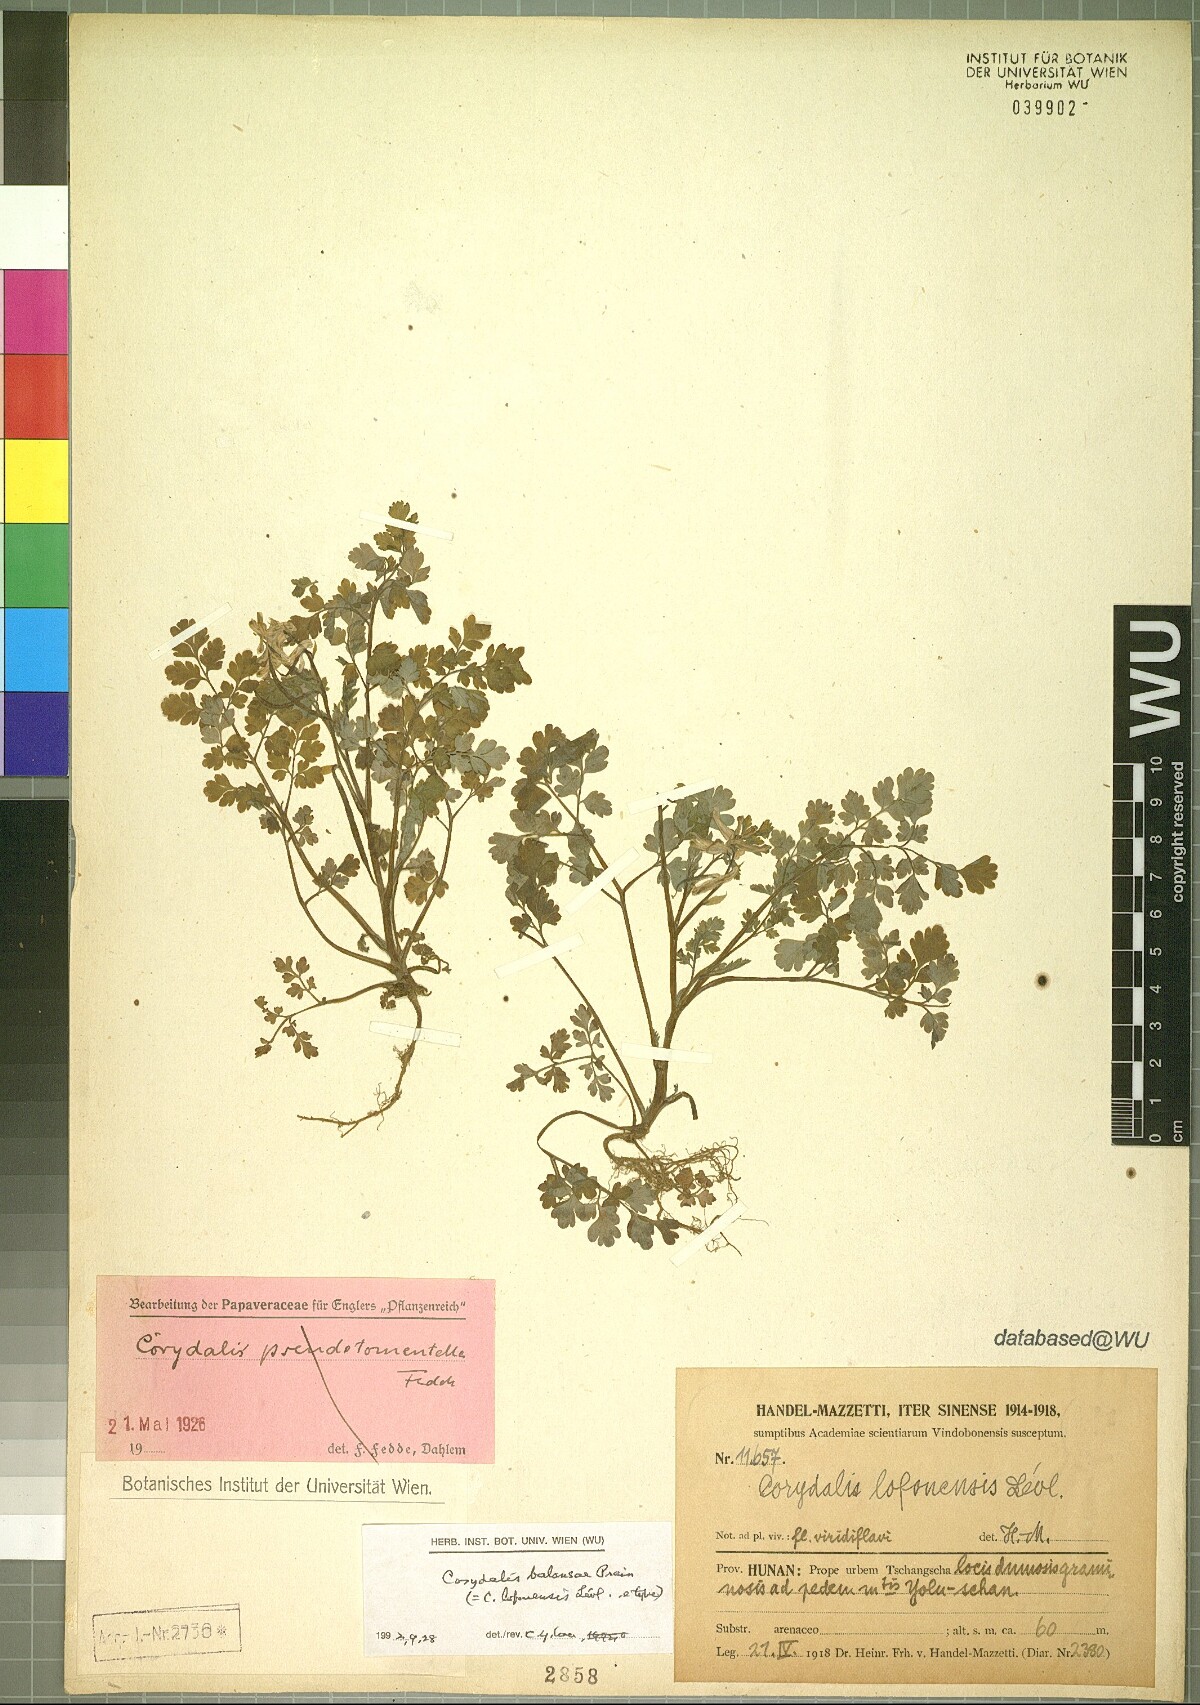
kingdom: Plantae
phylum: Tracheophyta
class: Magnoliopsida
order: Ranunculales
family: Papaveraceae
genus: Corydalis
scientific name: Corydalis balansae
